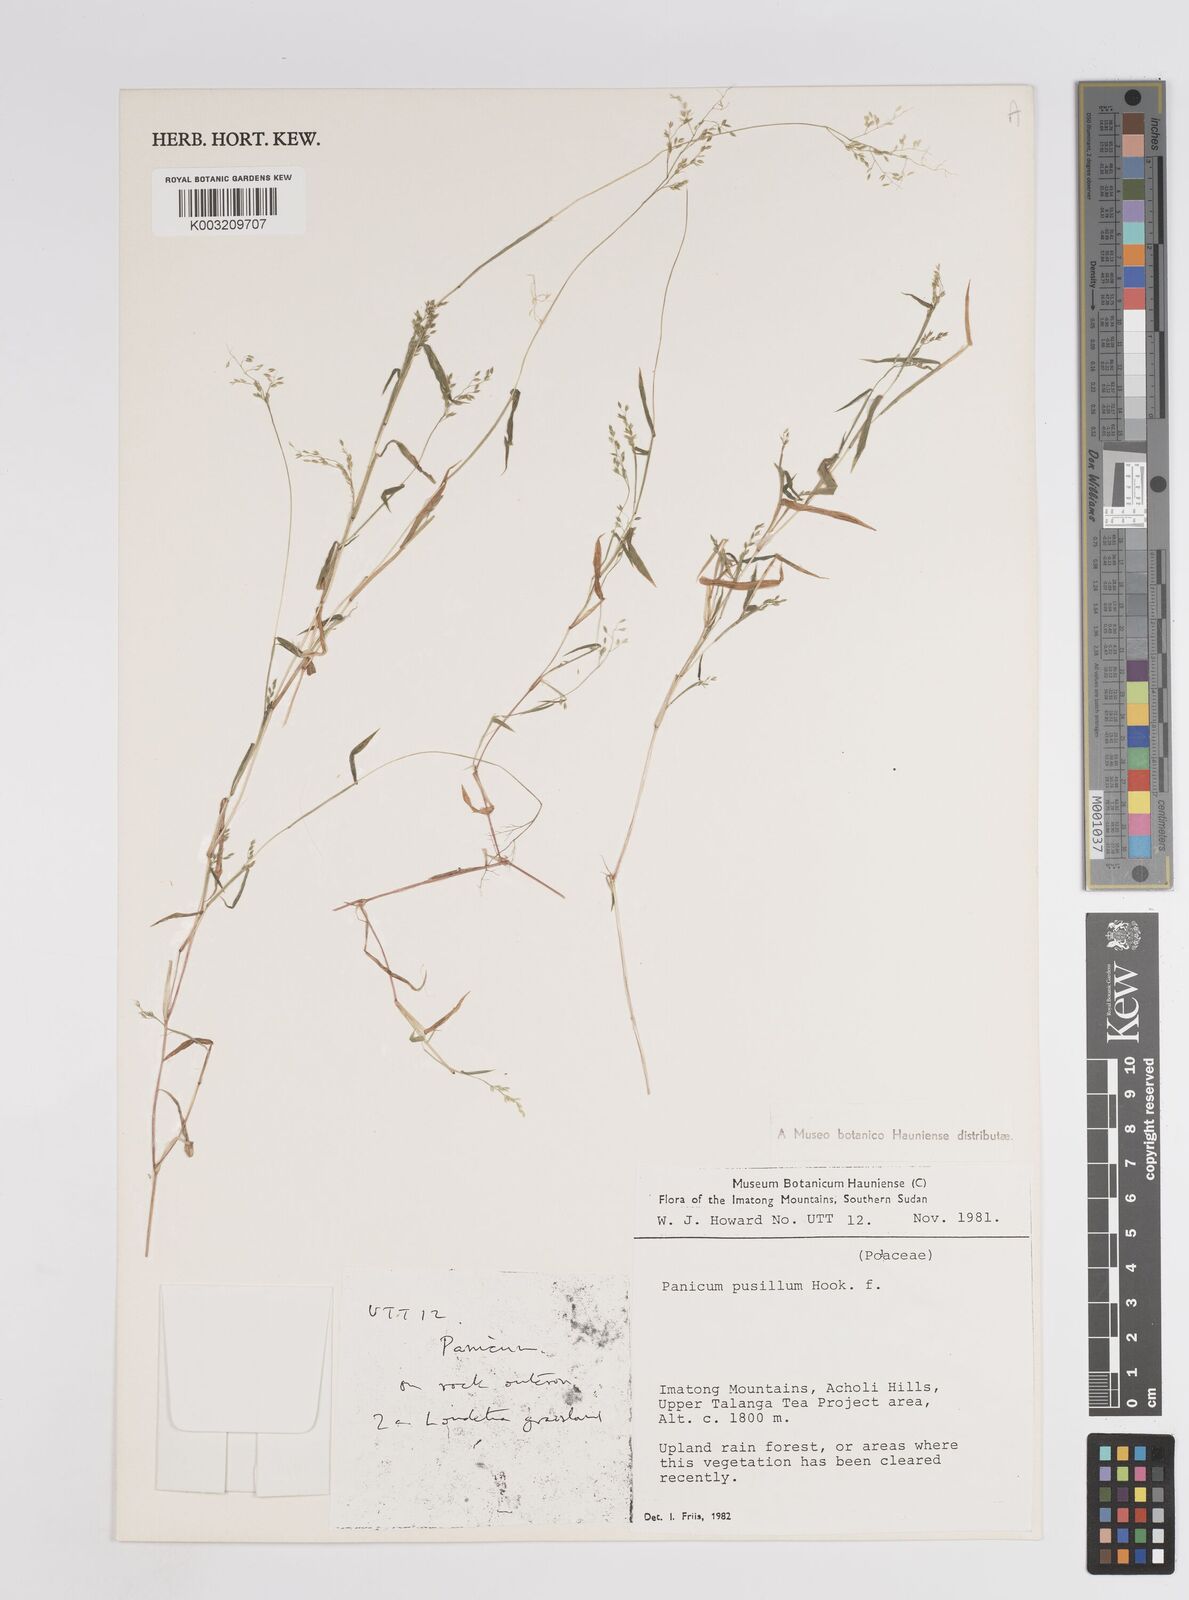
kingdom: Plantae
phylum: Tracheophyta
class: Liliopsida
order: Poales
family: Poaceae
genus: Panicum
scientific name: Panicum pusillum
